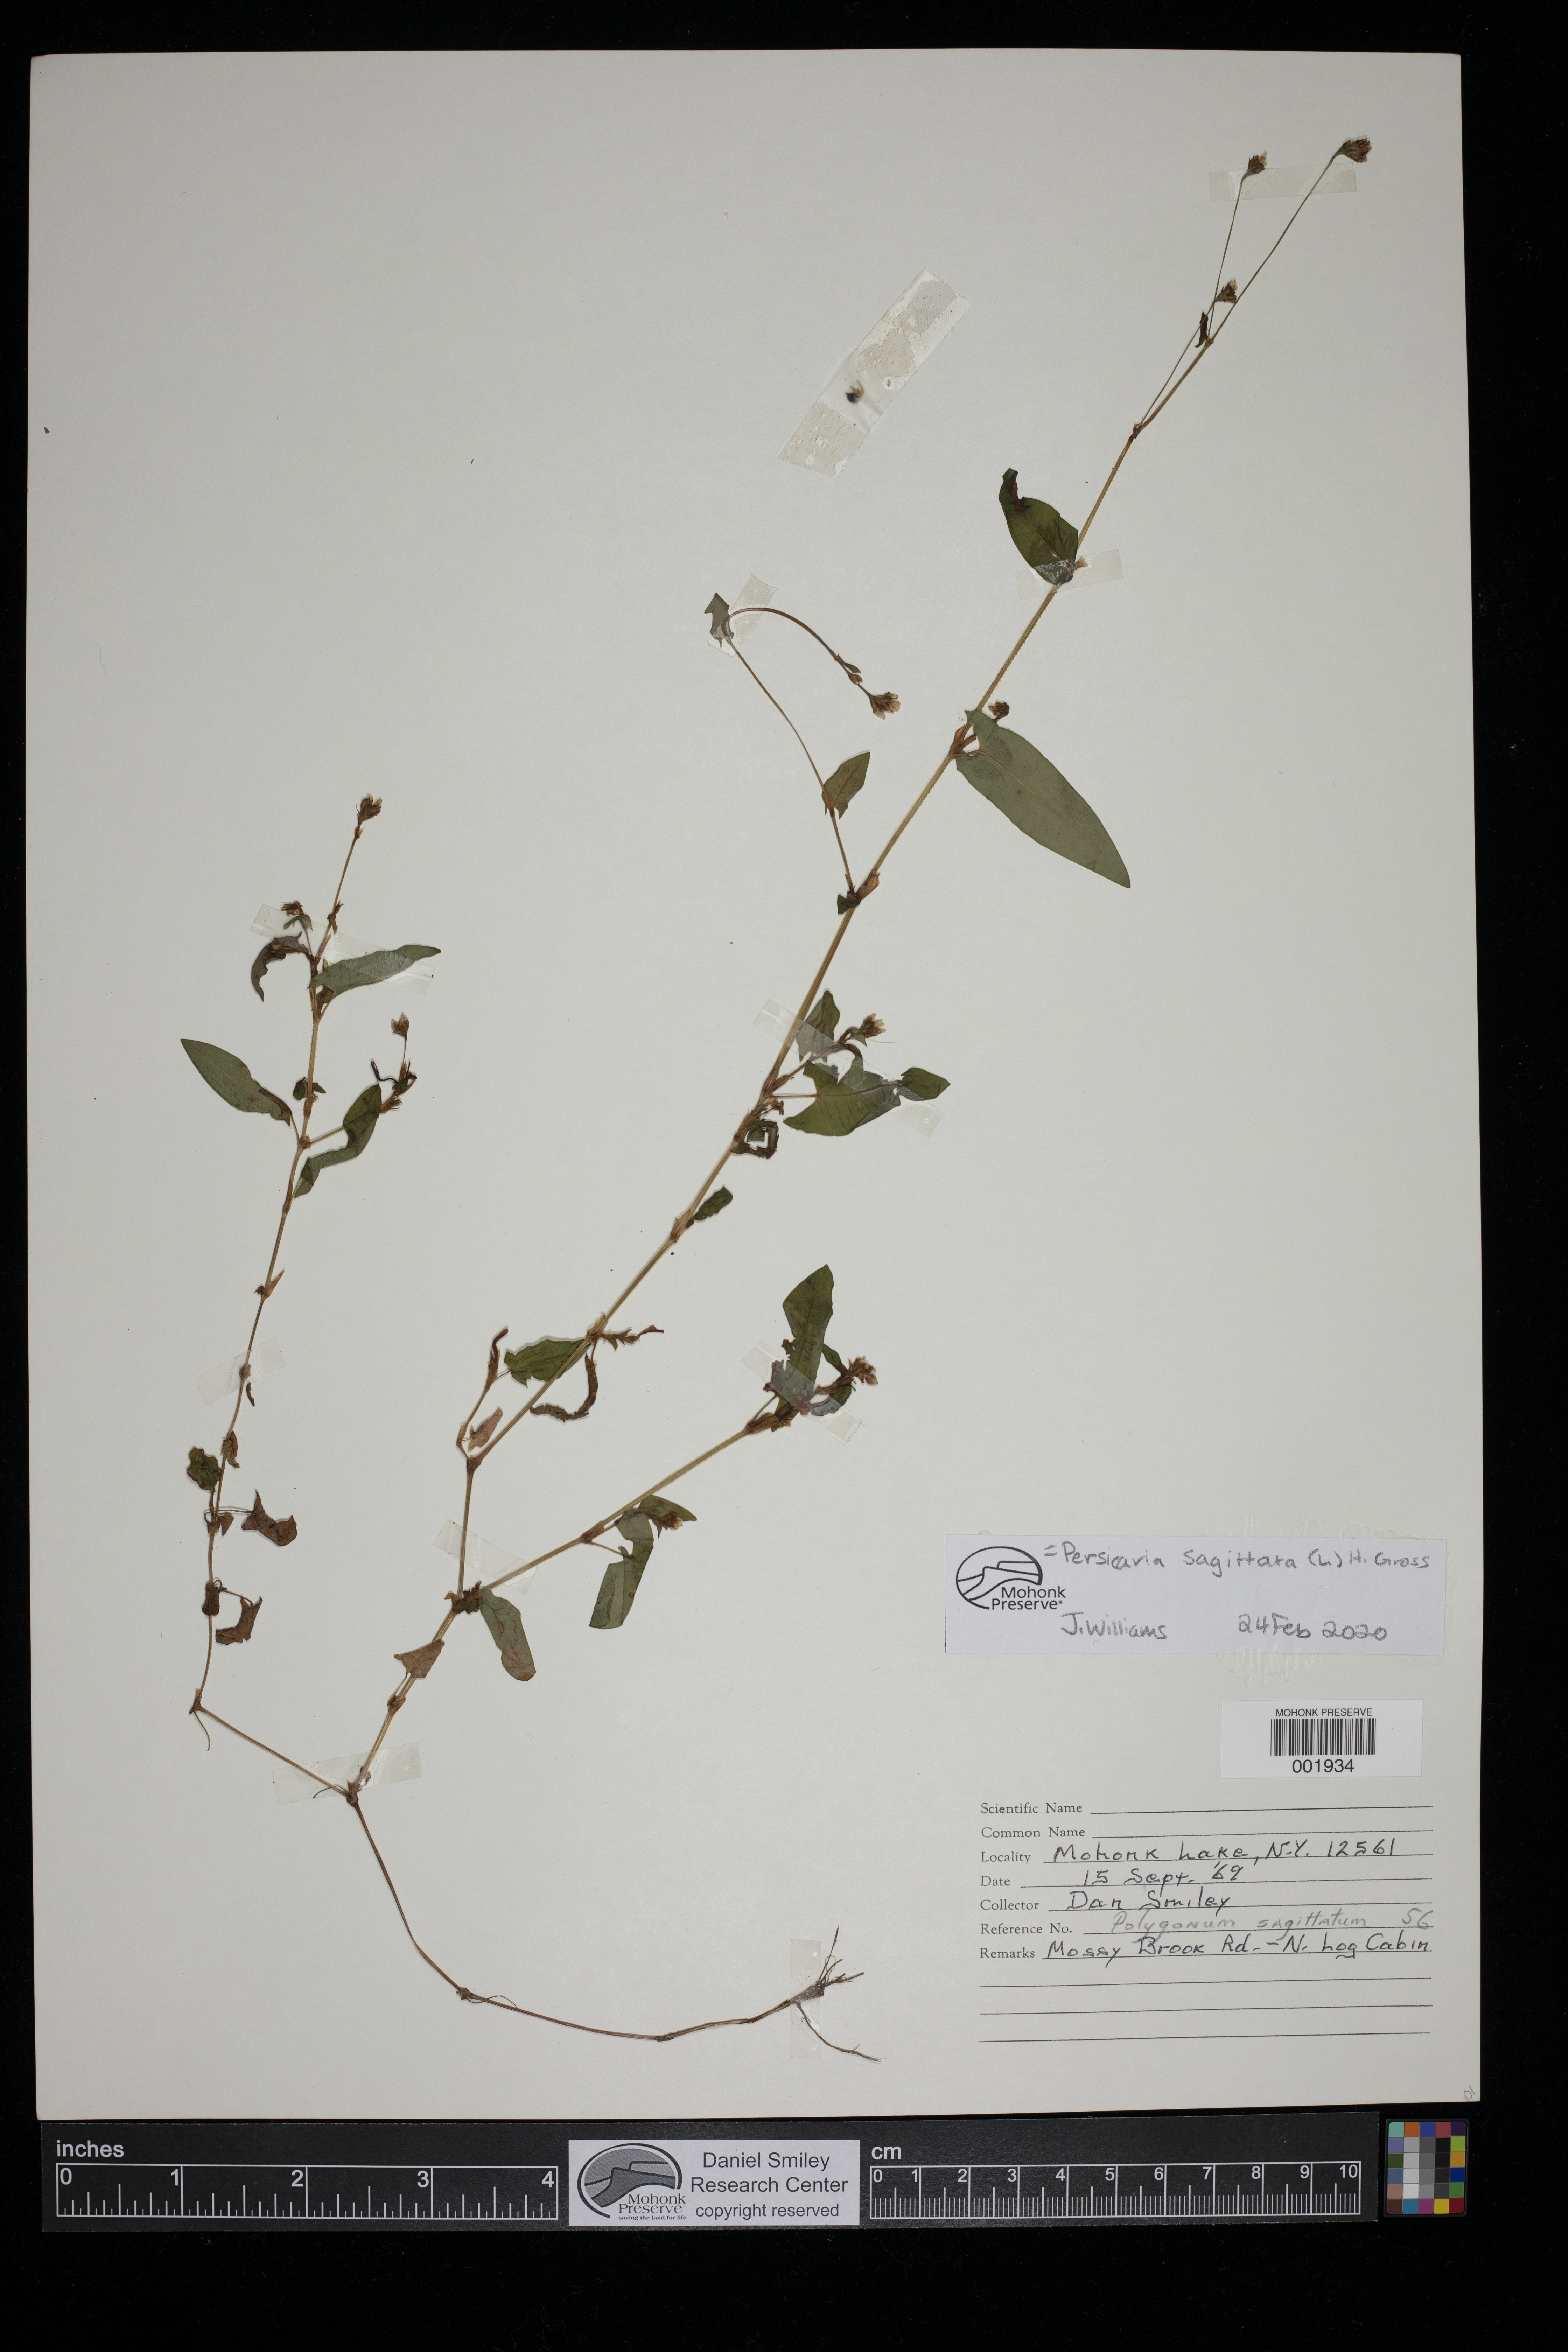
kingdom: Plantae
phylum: Tracheophyta
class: Magnoliopsida
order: Caryophyllales
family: Polygonaceae
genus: Persicaria
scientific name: Persicaria sagittata
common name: American tearthumb
